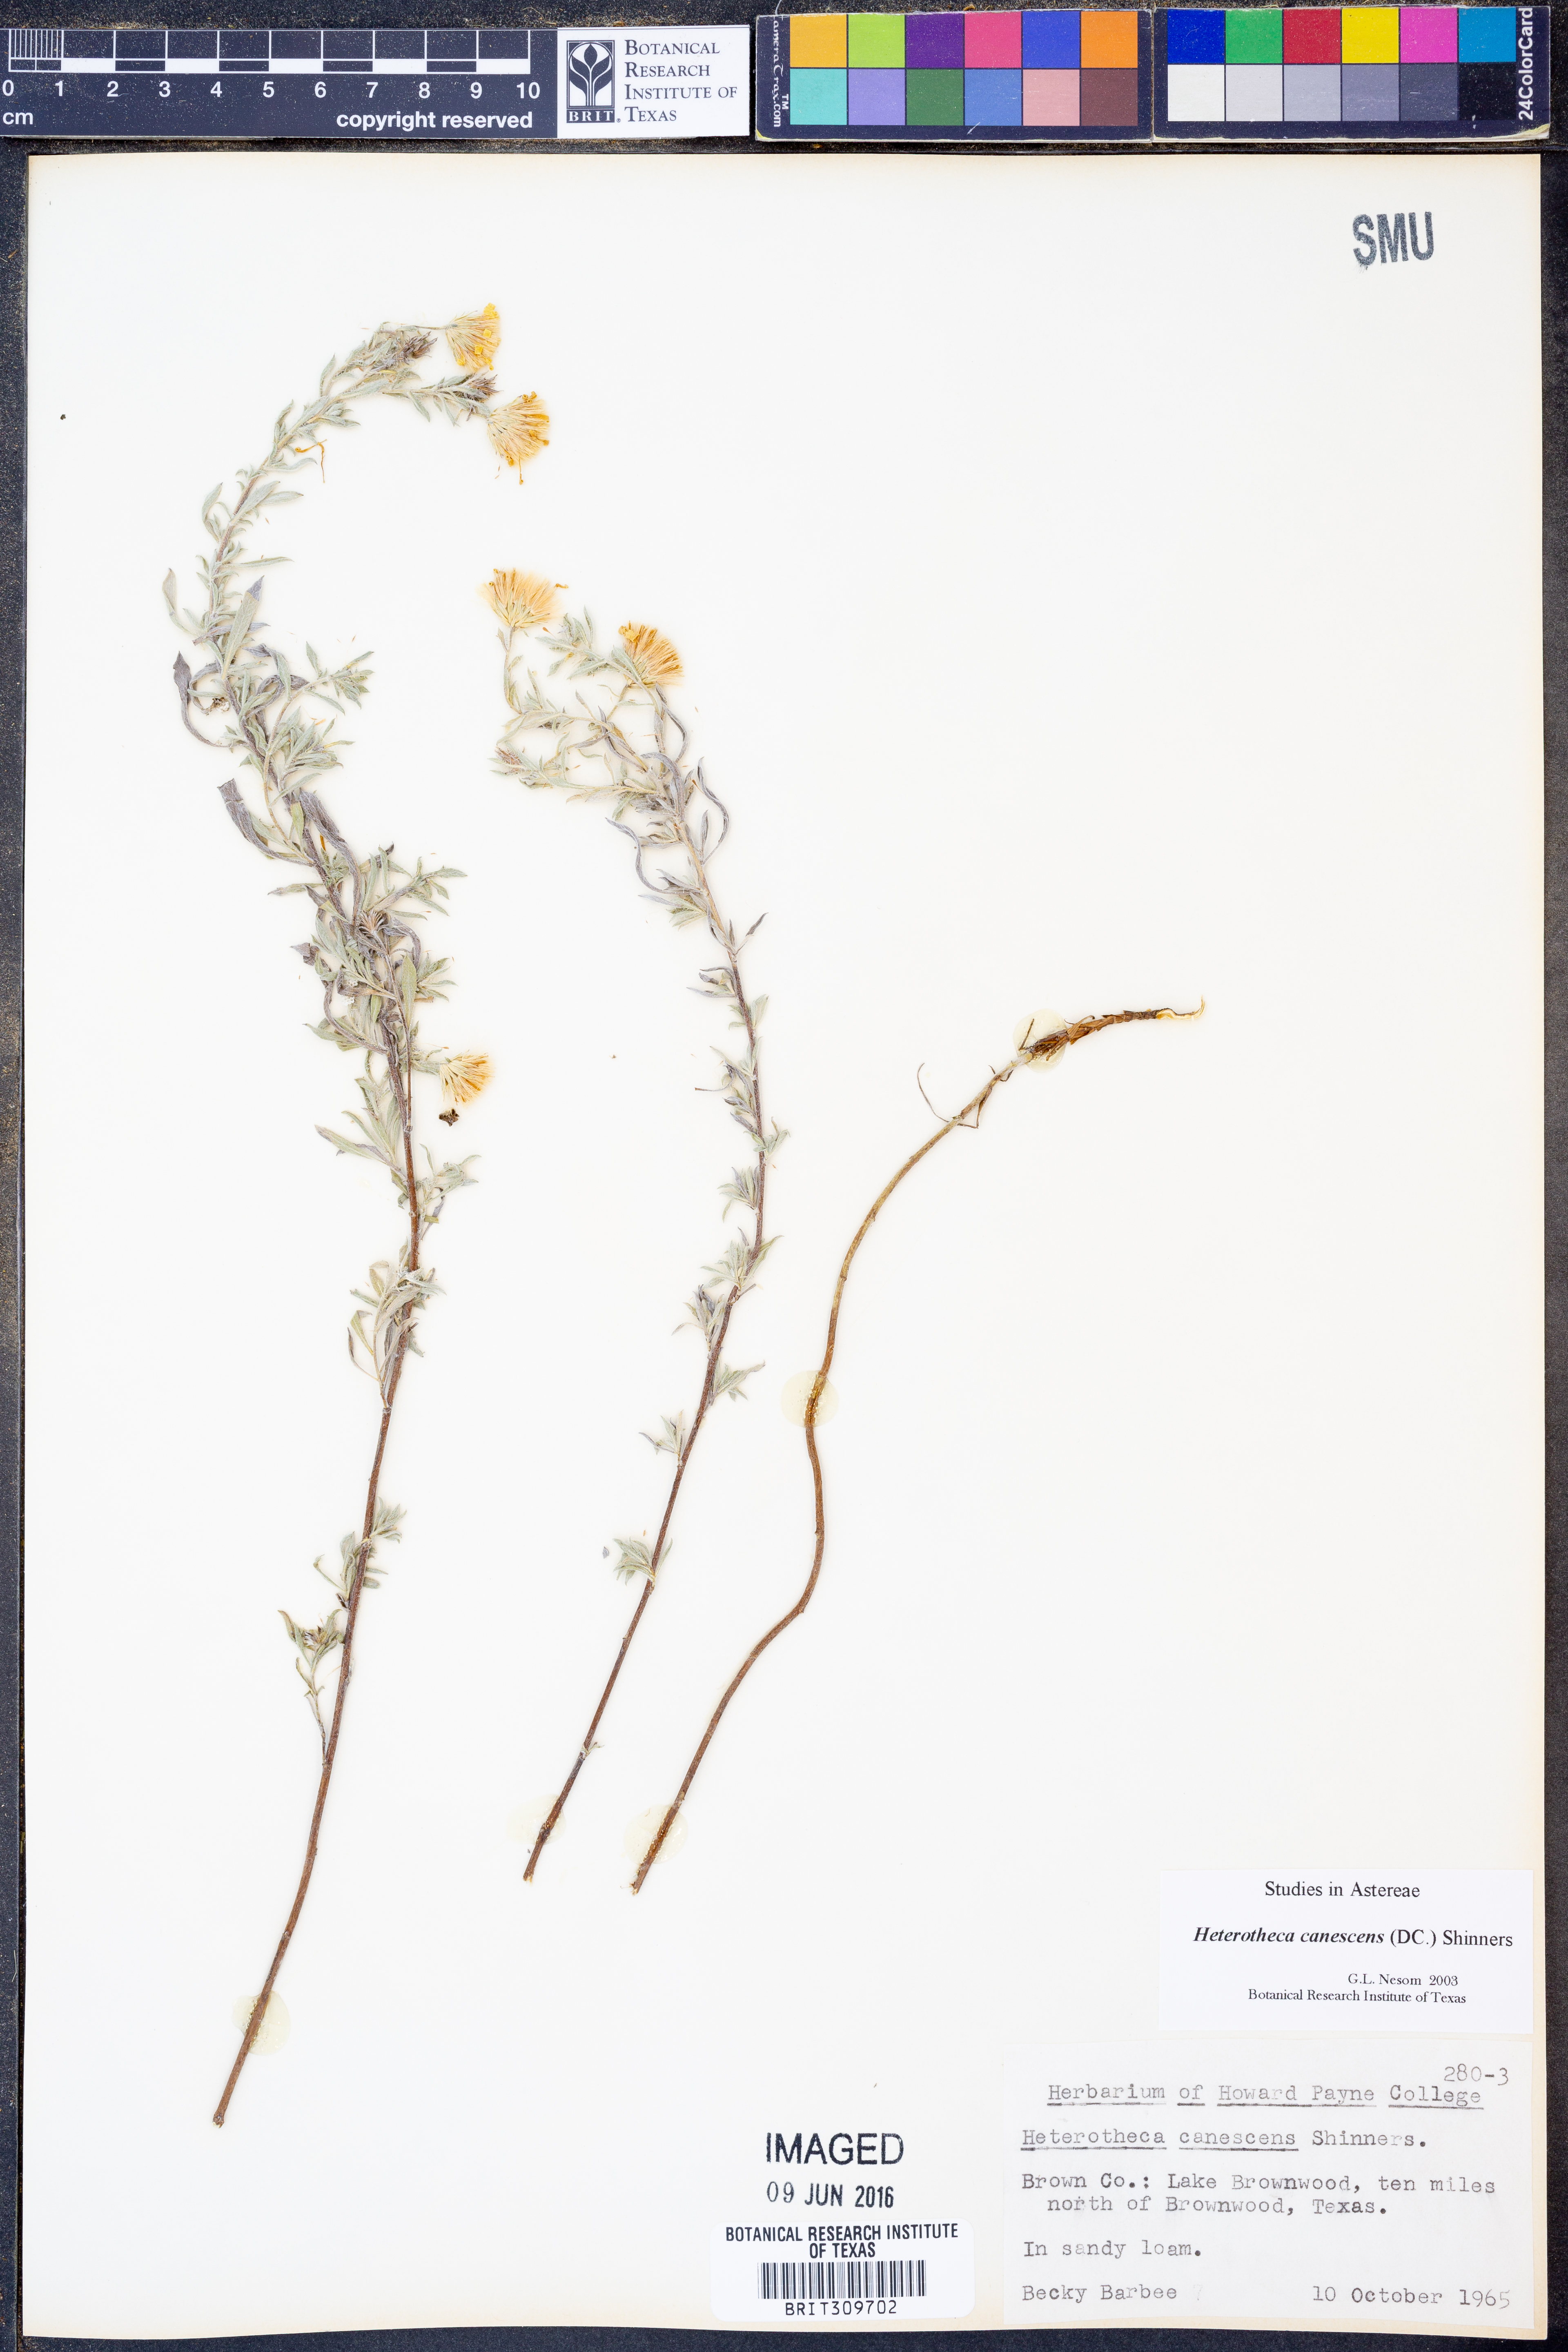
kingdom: Plantae
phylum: Tracheophyta
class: Magnoliopsida
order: Asterales
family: Asteraceae
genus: Heterotheca
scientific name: Heterotheca canescens
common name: Hoary golden-aster
